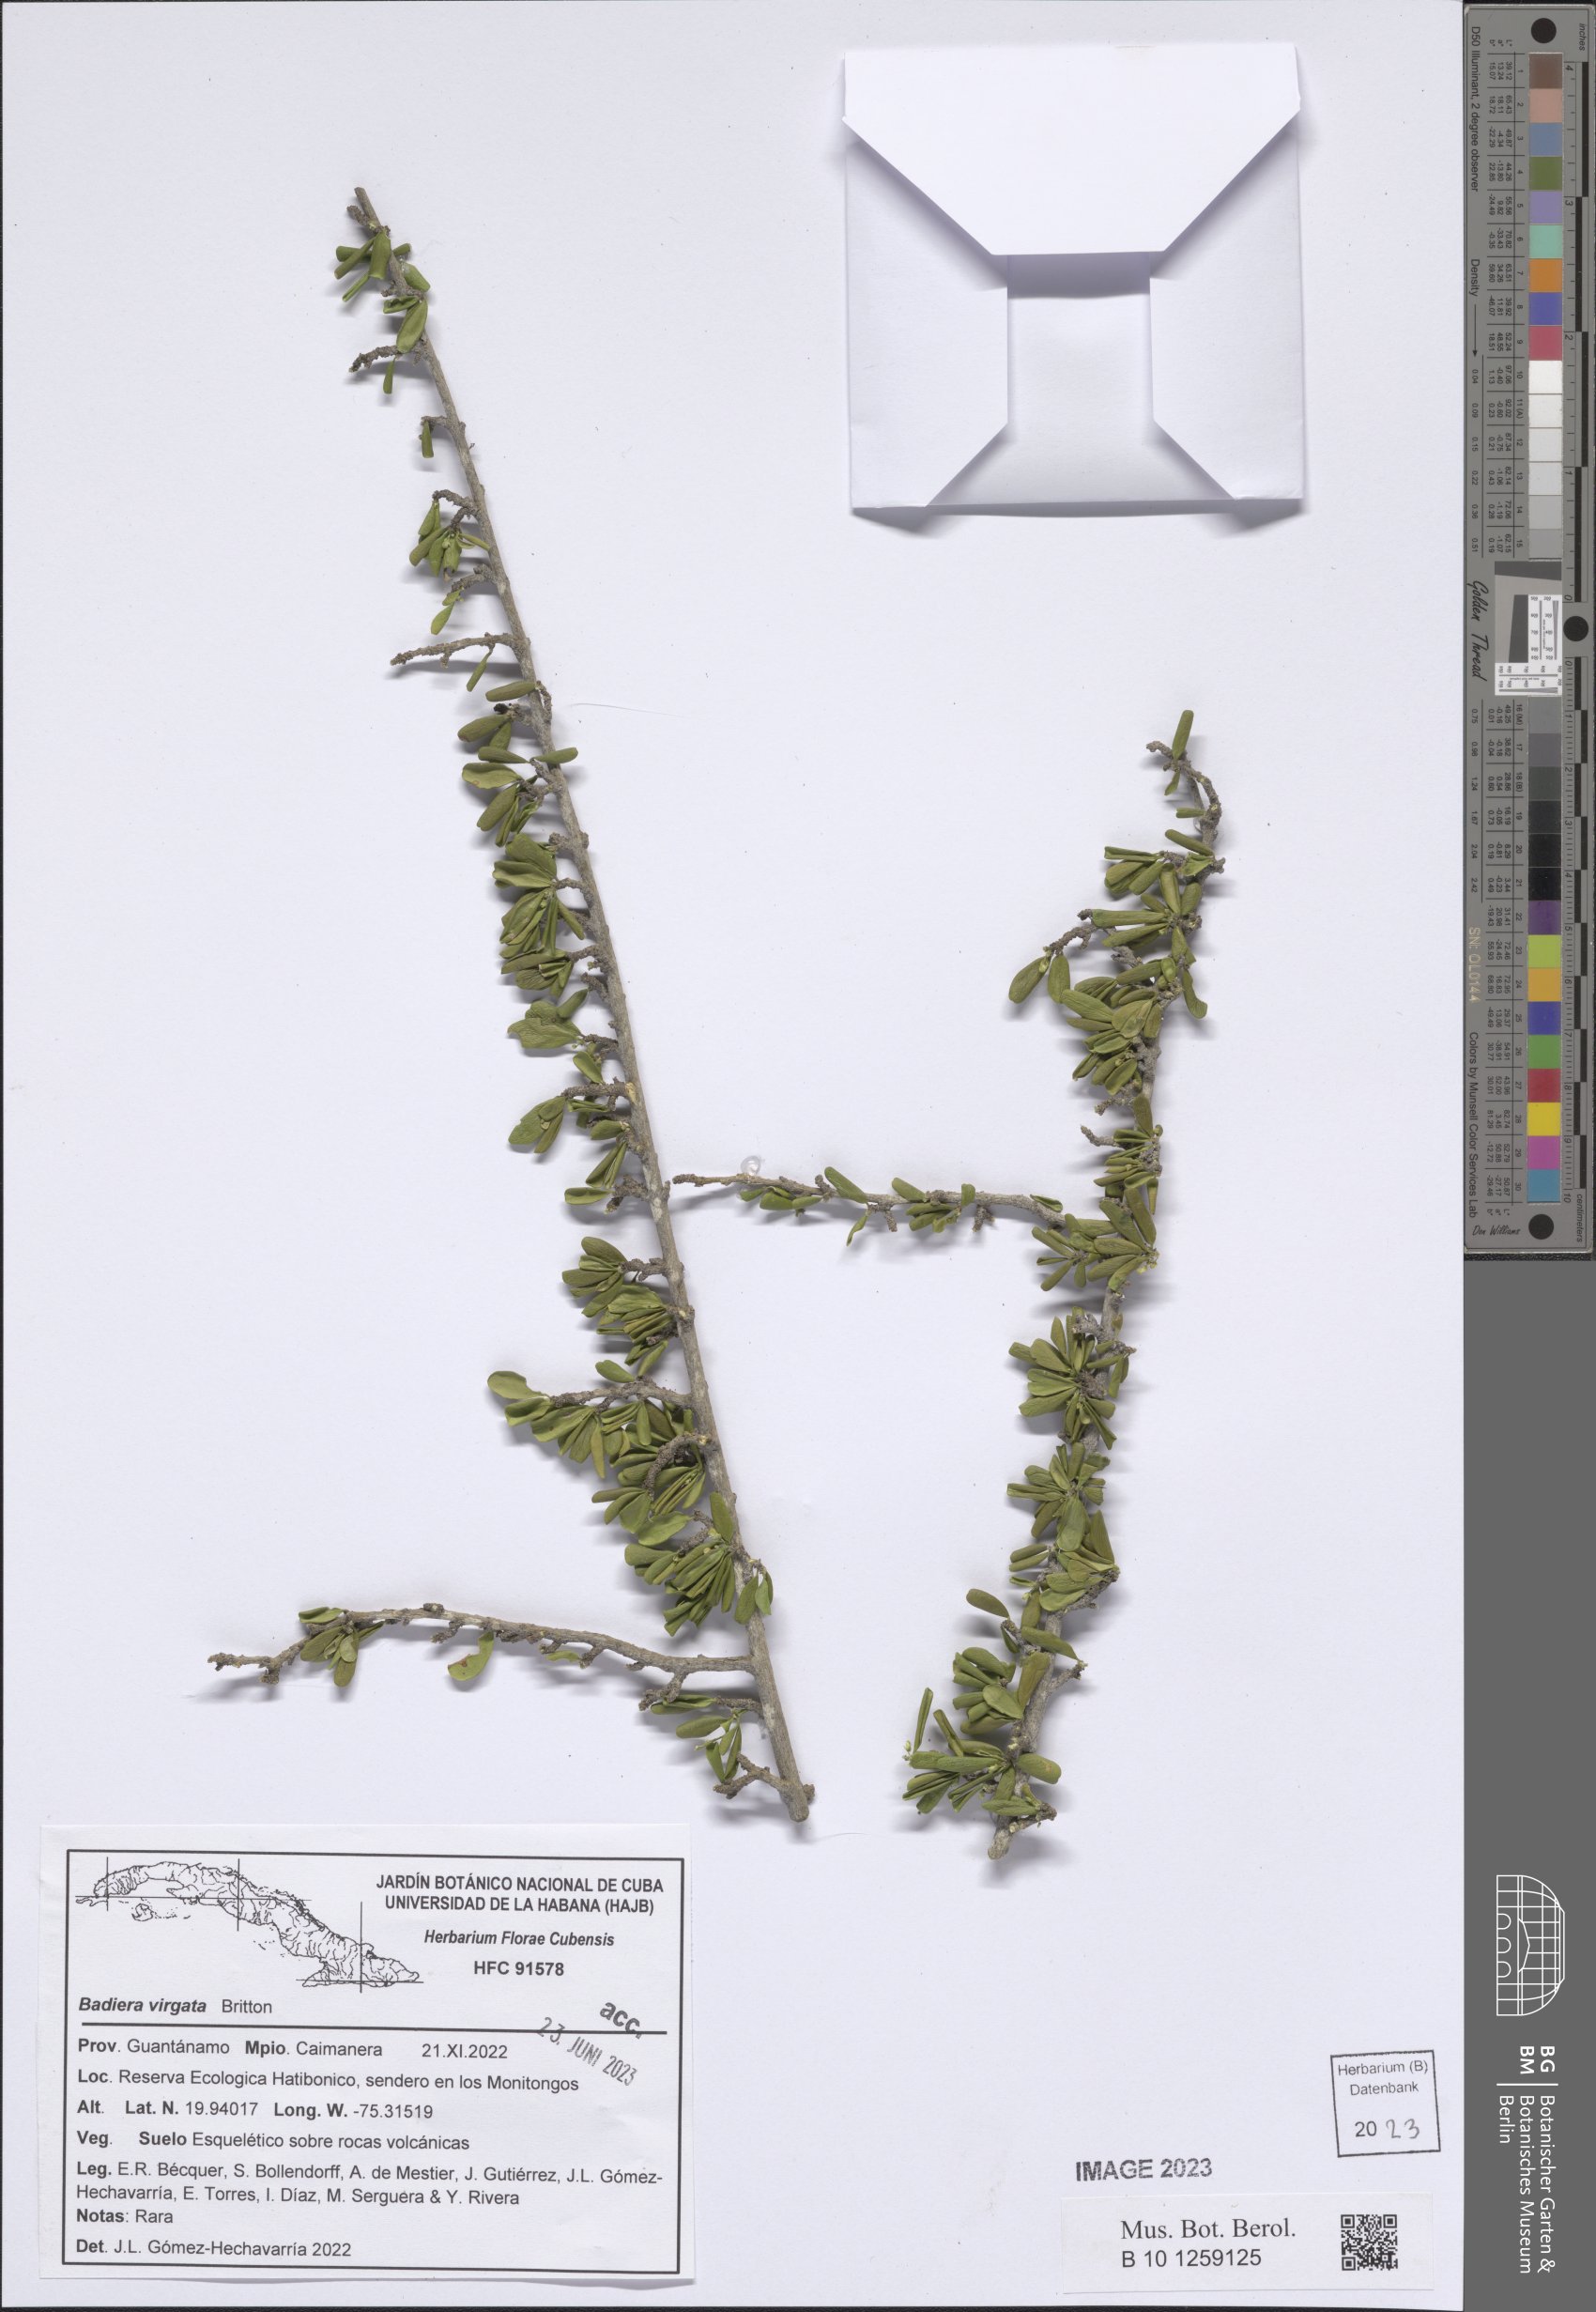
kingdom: Plantae
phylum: Tracheophyta
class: Magnoliopsida
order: Fabales
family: Polygalaceae
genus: Badiera
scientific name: Badiera virgata
